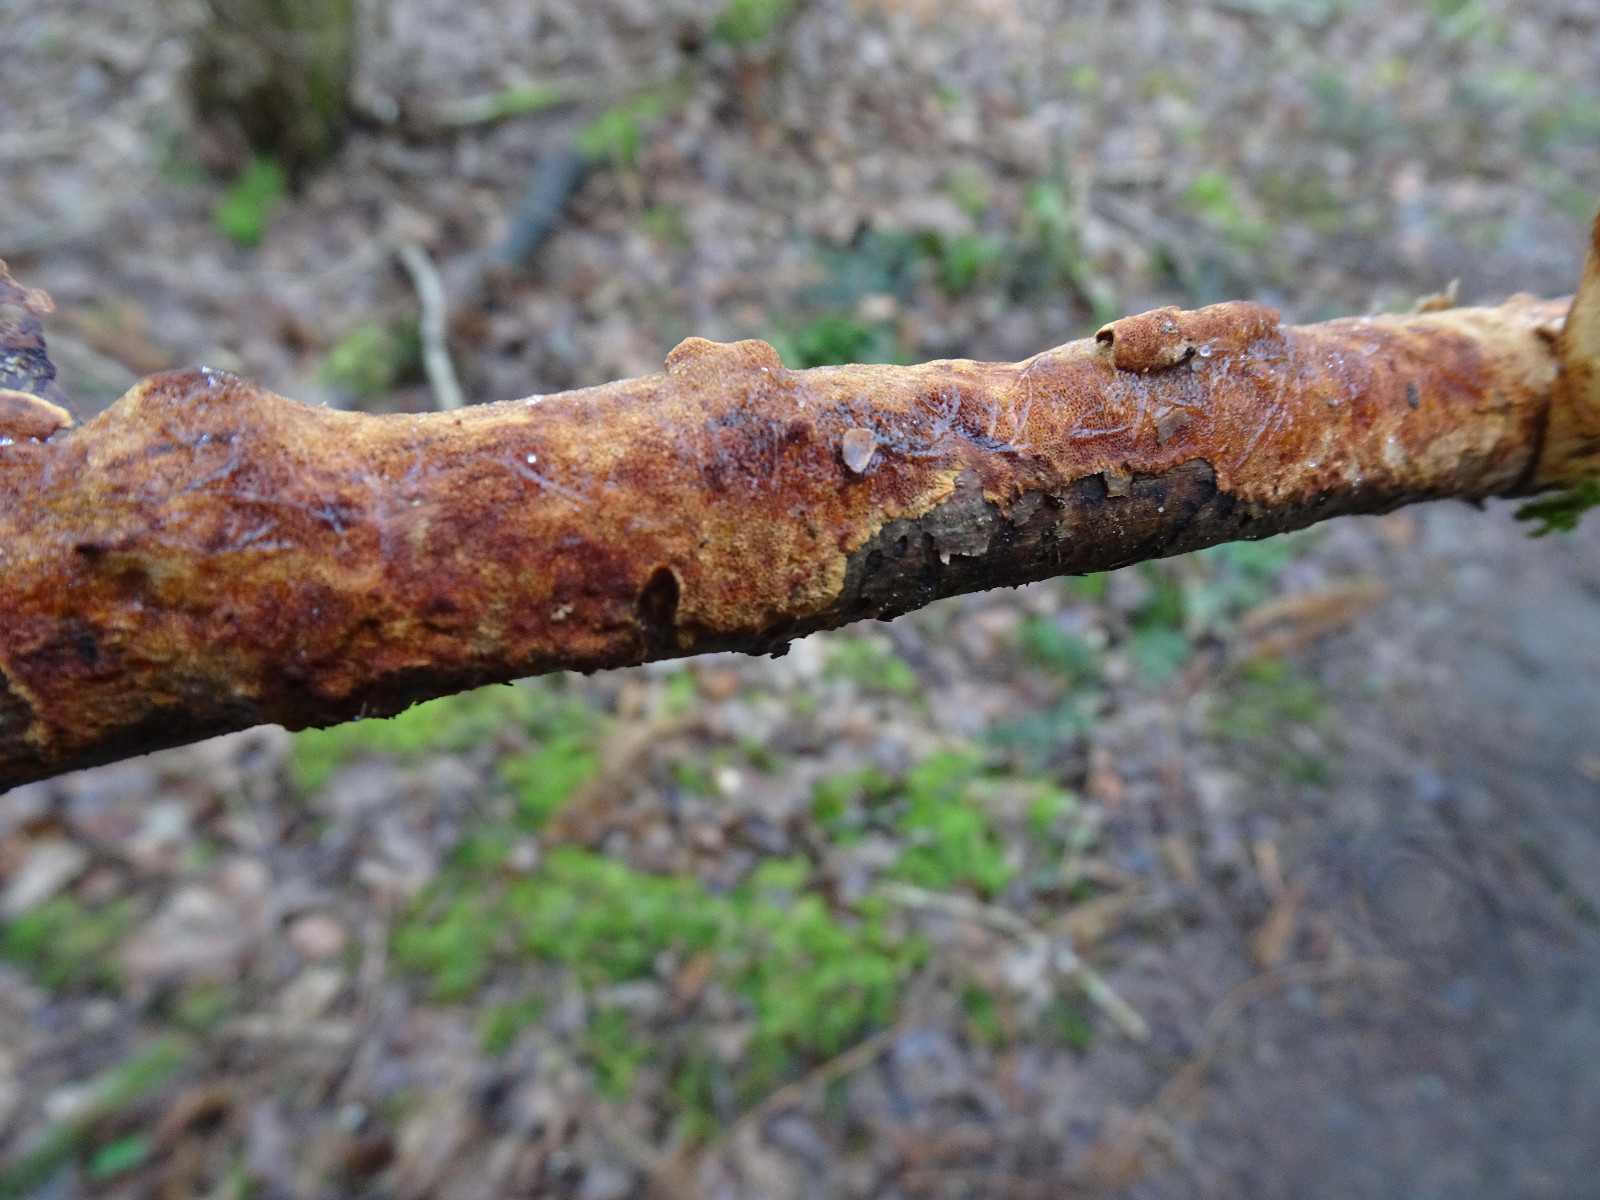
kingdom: Fungi
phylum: Basidiomycota
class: Agaricomycetes
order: Hymenochaetales
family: Hymenochaetaceae
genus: Fuscoporia
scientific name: Fuscoporia ferrea
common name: skorpe-ildporesvamp
